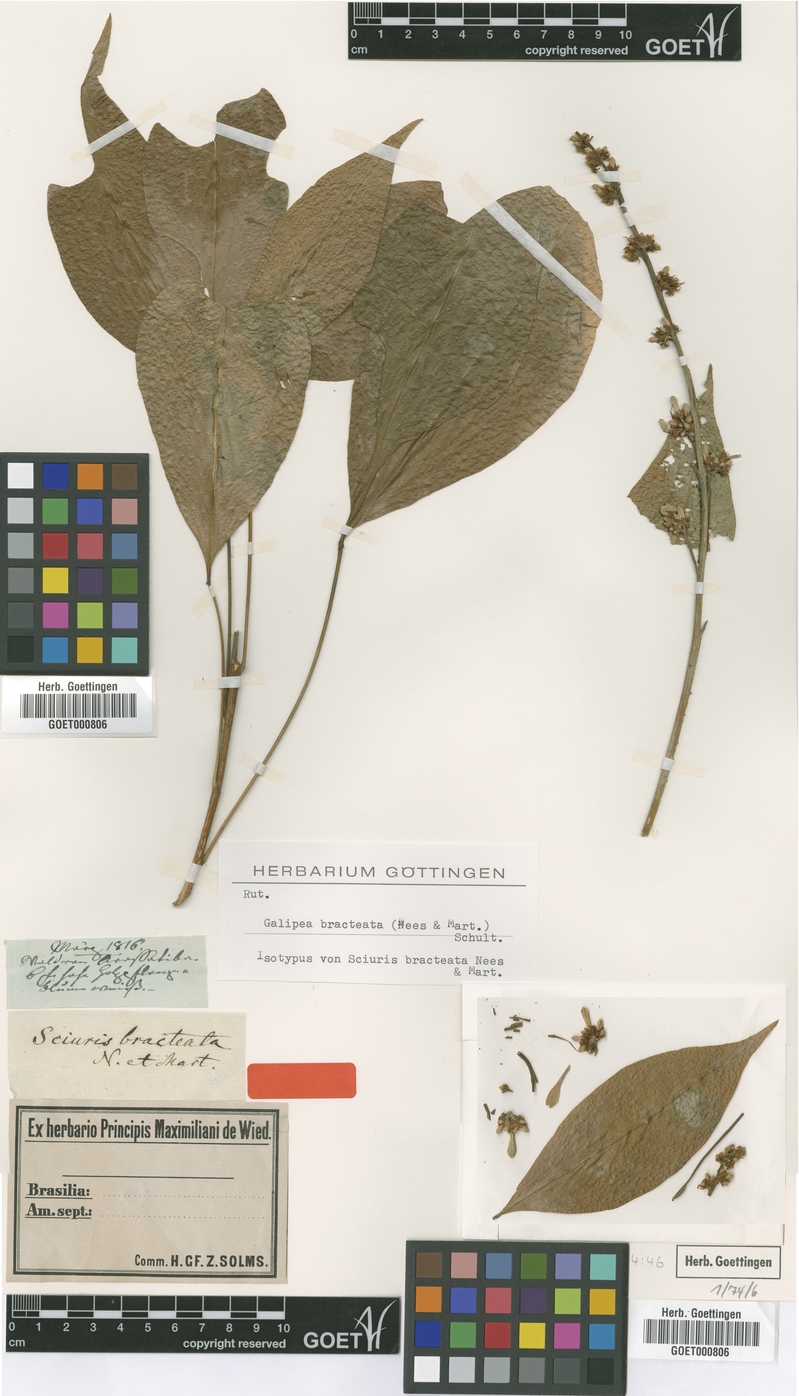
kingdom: Plantae
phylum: Tracheophyta
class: Magnoliopsida
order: Sapindales
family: Rutaceae
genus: Angostura
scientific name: Angostura bracteata
